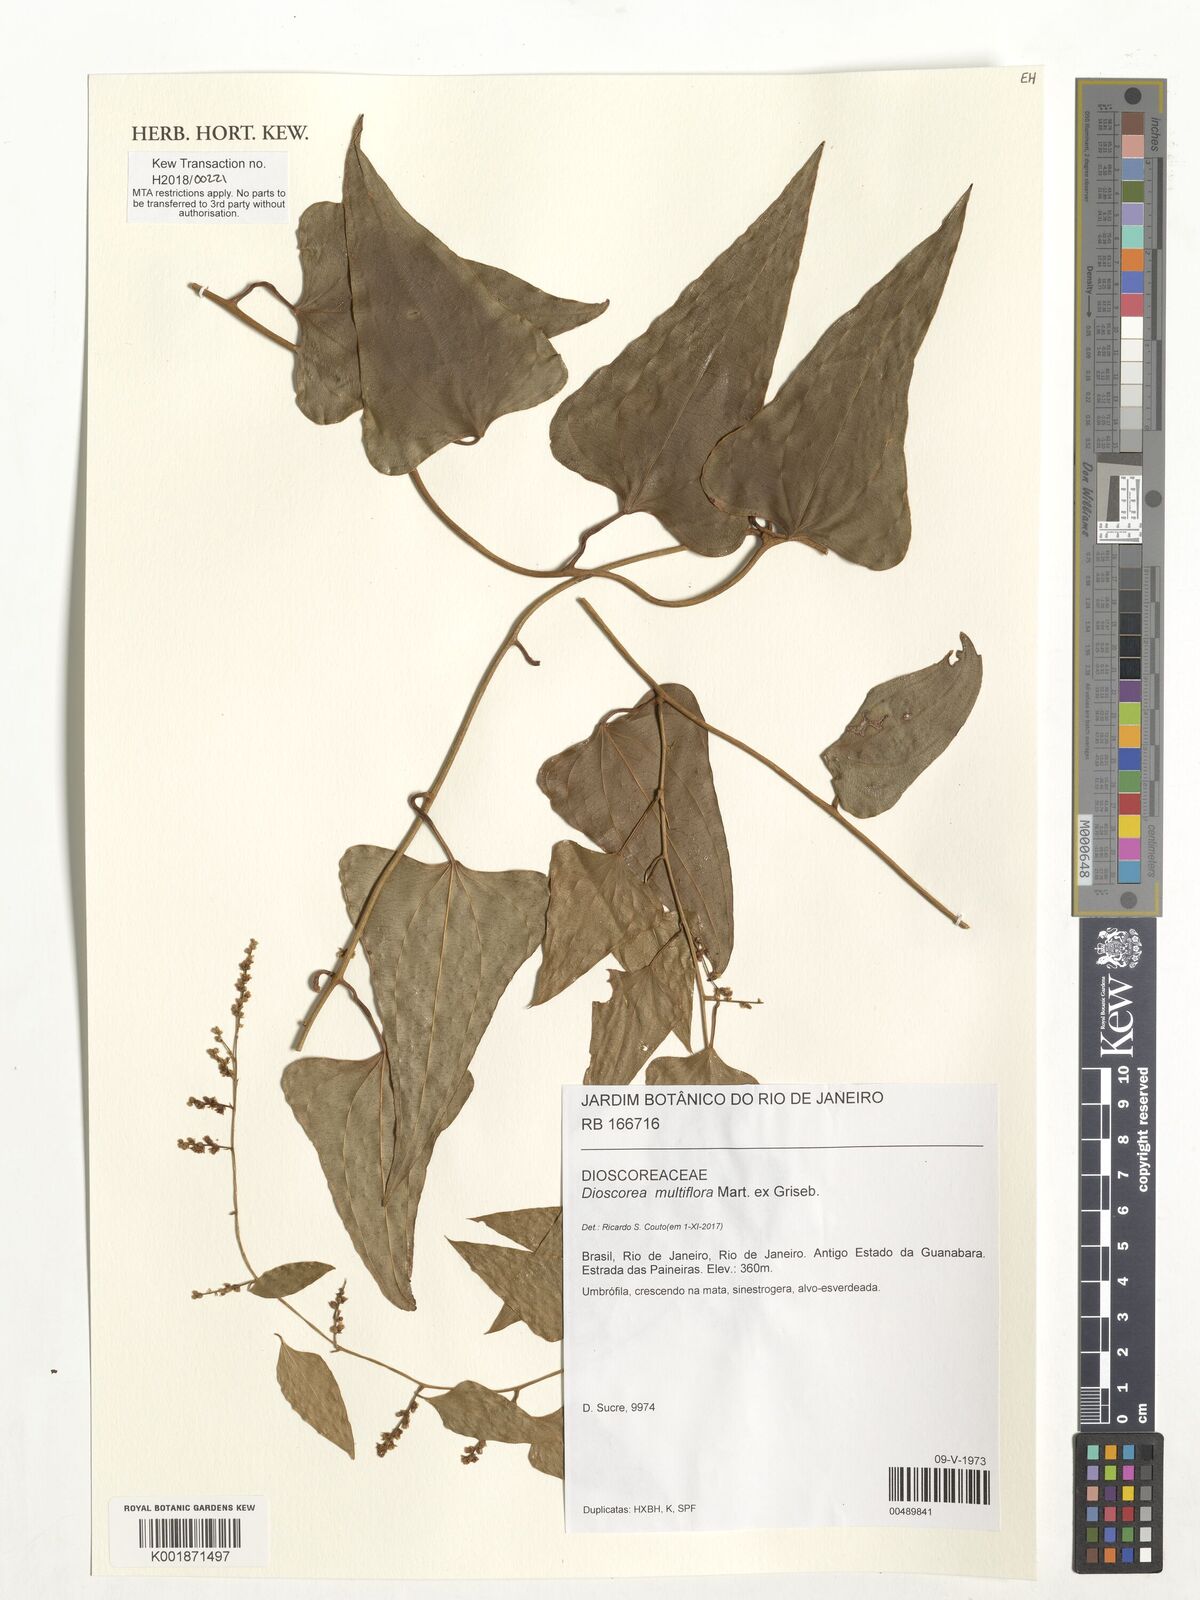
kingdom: Plantae
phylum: Tracheophyta
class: Liliopsida
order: Dioscoreales
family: Dioscoreaceae
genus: Dioscorea
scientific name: Dioscorea multiflora
